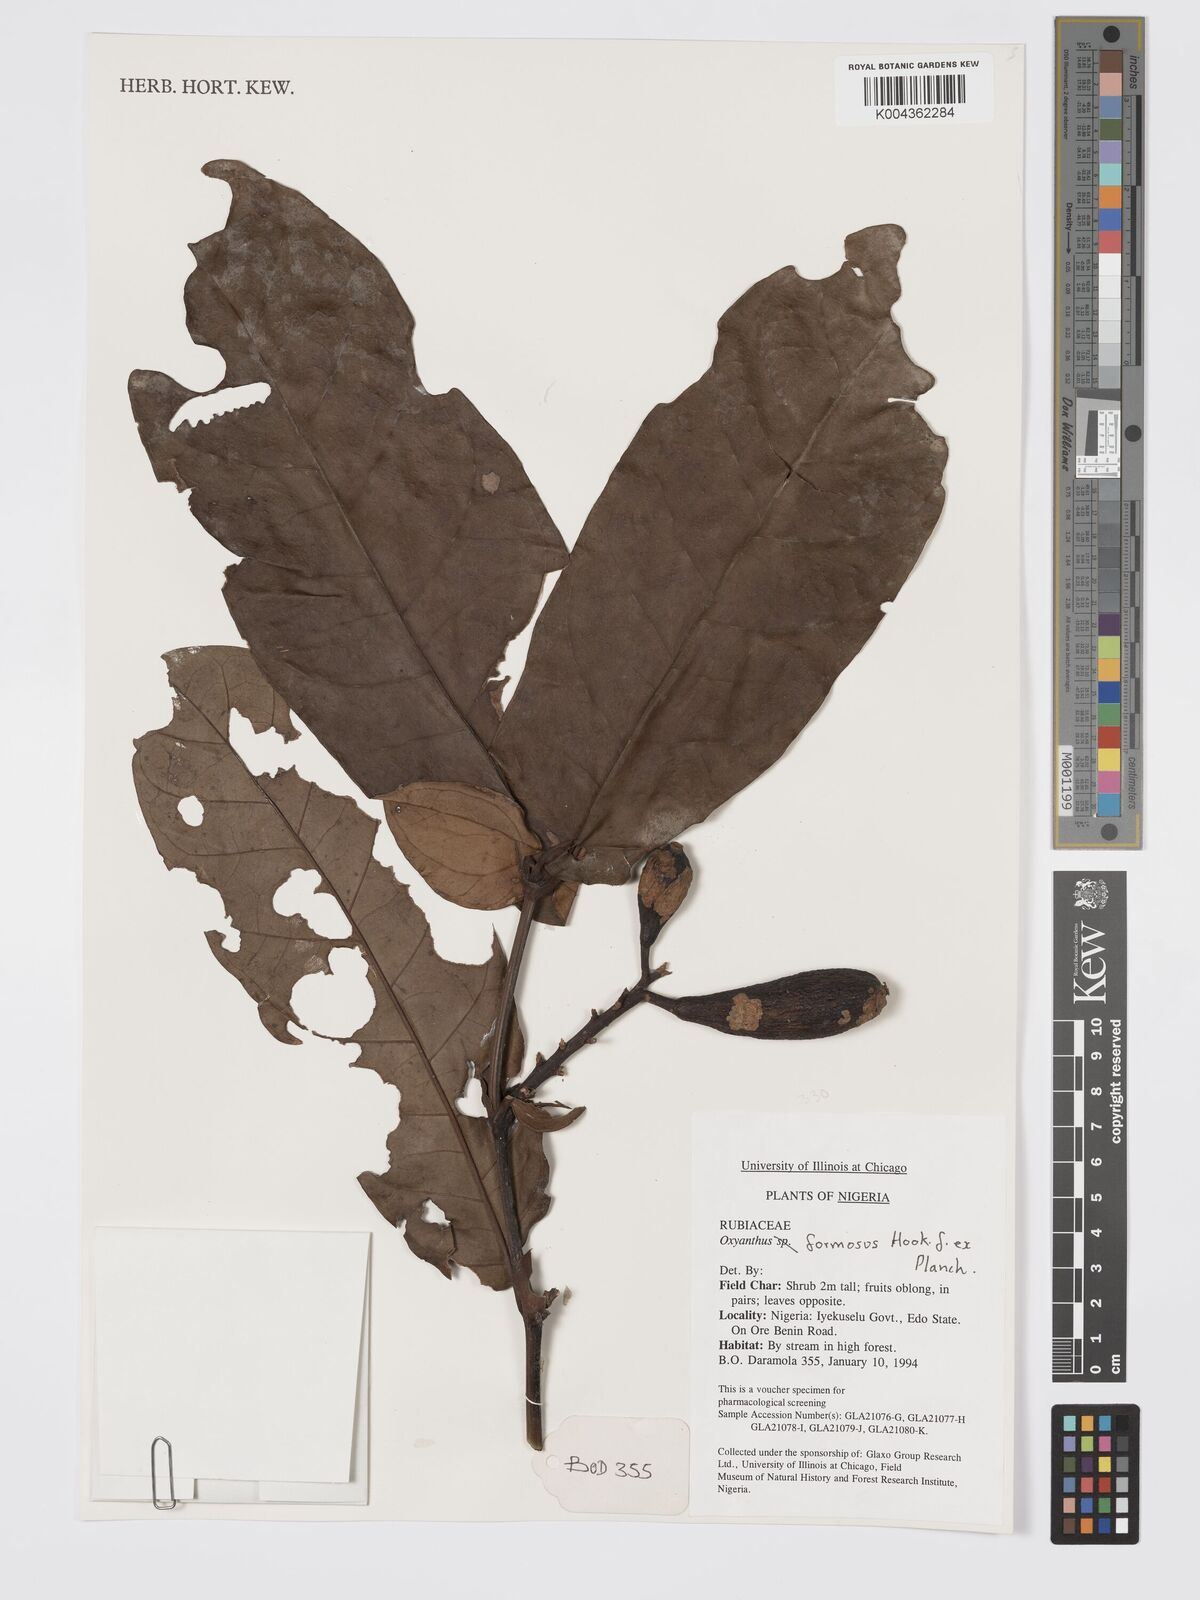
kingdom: Plantae
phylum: Tracheophyta
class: Magnoliopsida
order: Gentianales
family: Rubiaceae
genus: Oxyanthus
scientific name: Oxyanthus formosus
